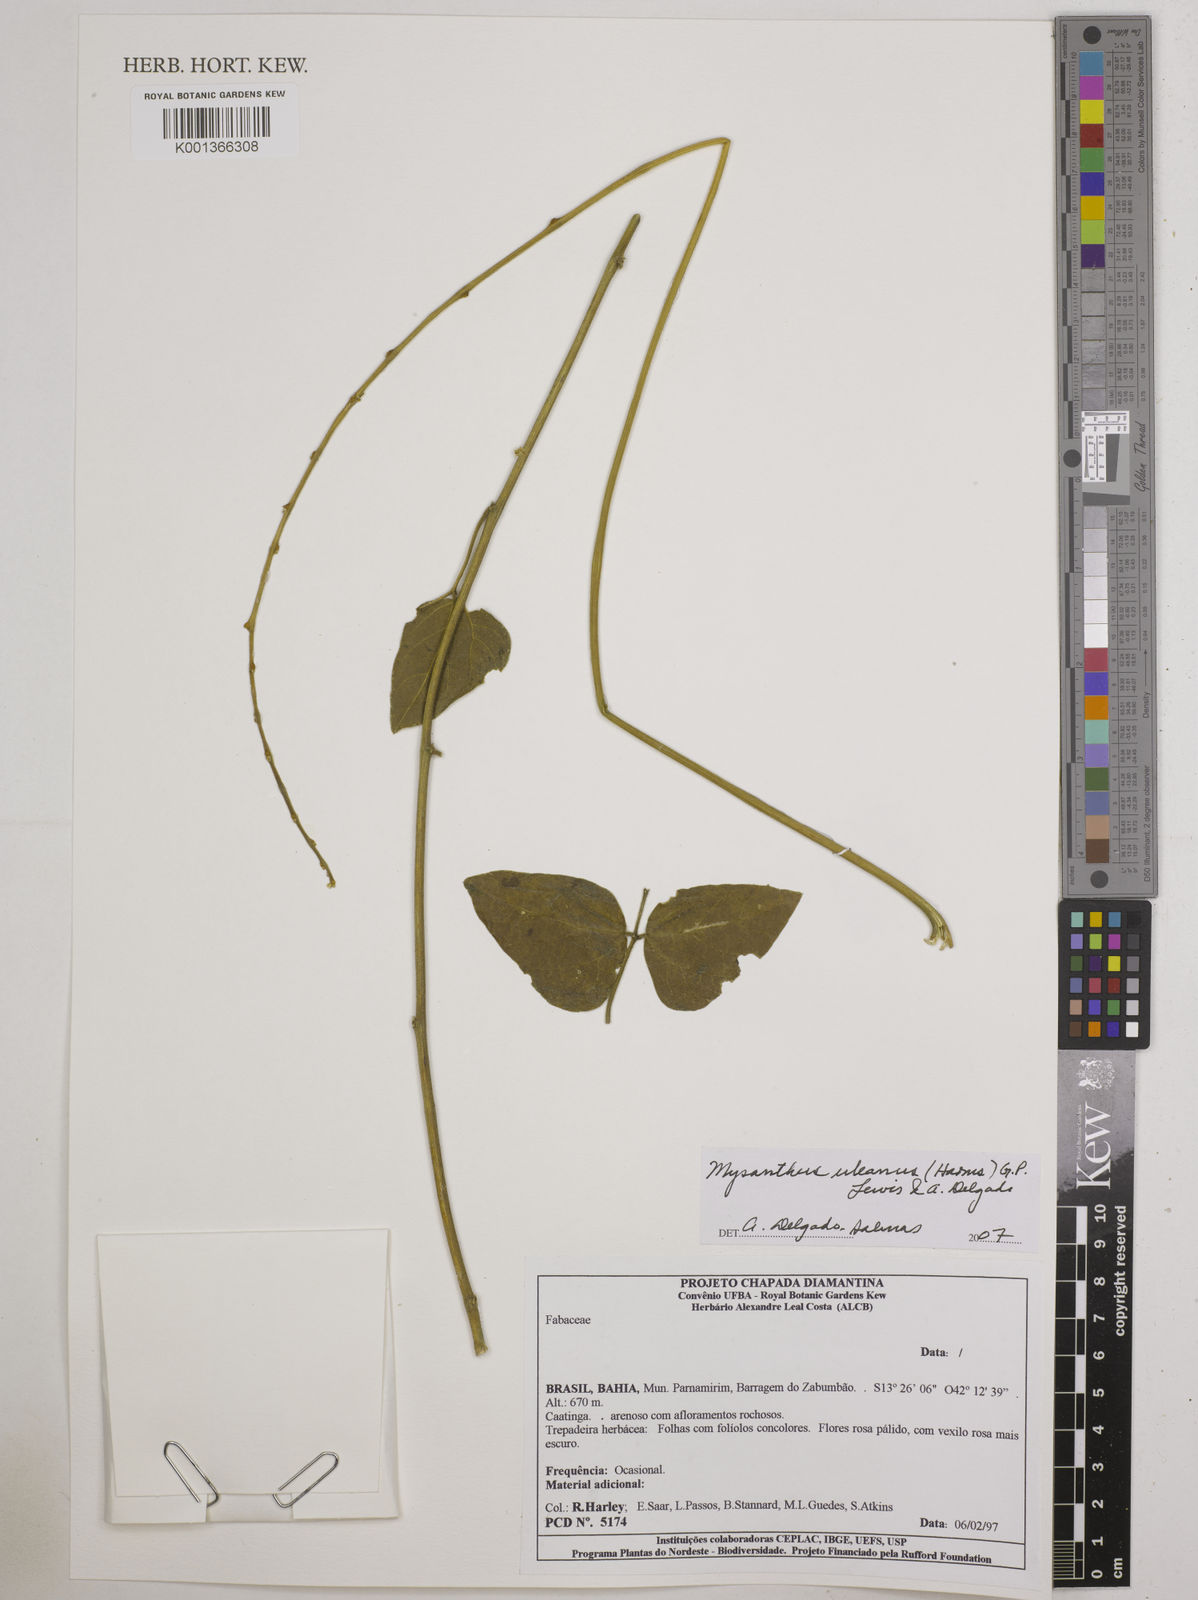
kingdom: Plantae
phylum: Tracheophyta
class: Magnoliopsida
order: Fabales
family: Fabaceae
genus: Mysanthus
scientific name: Mysanthus uleanus
